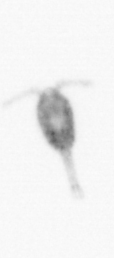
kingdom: Animalia
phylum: Arthropoda
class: Copepoda
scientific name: Copepoda
